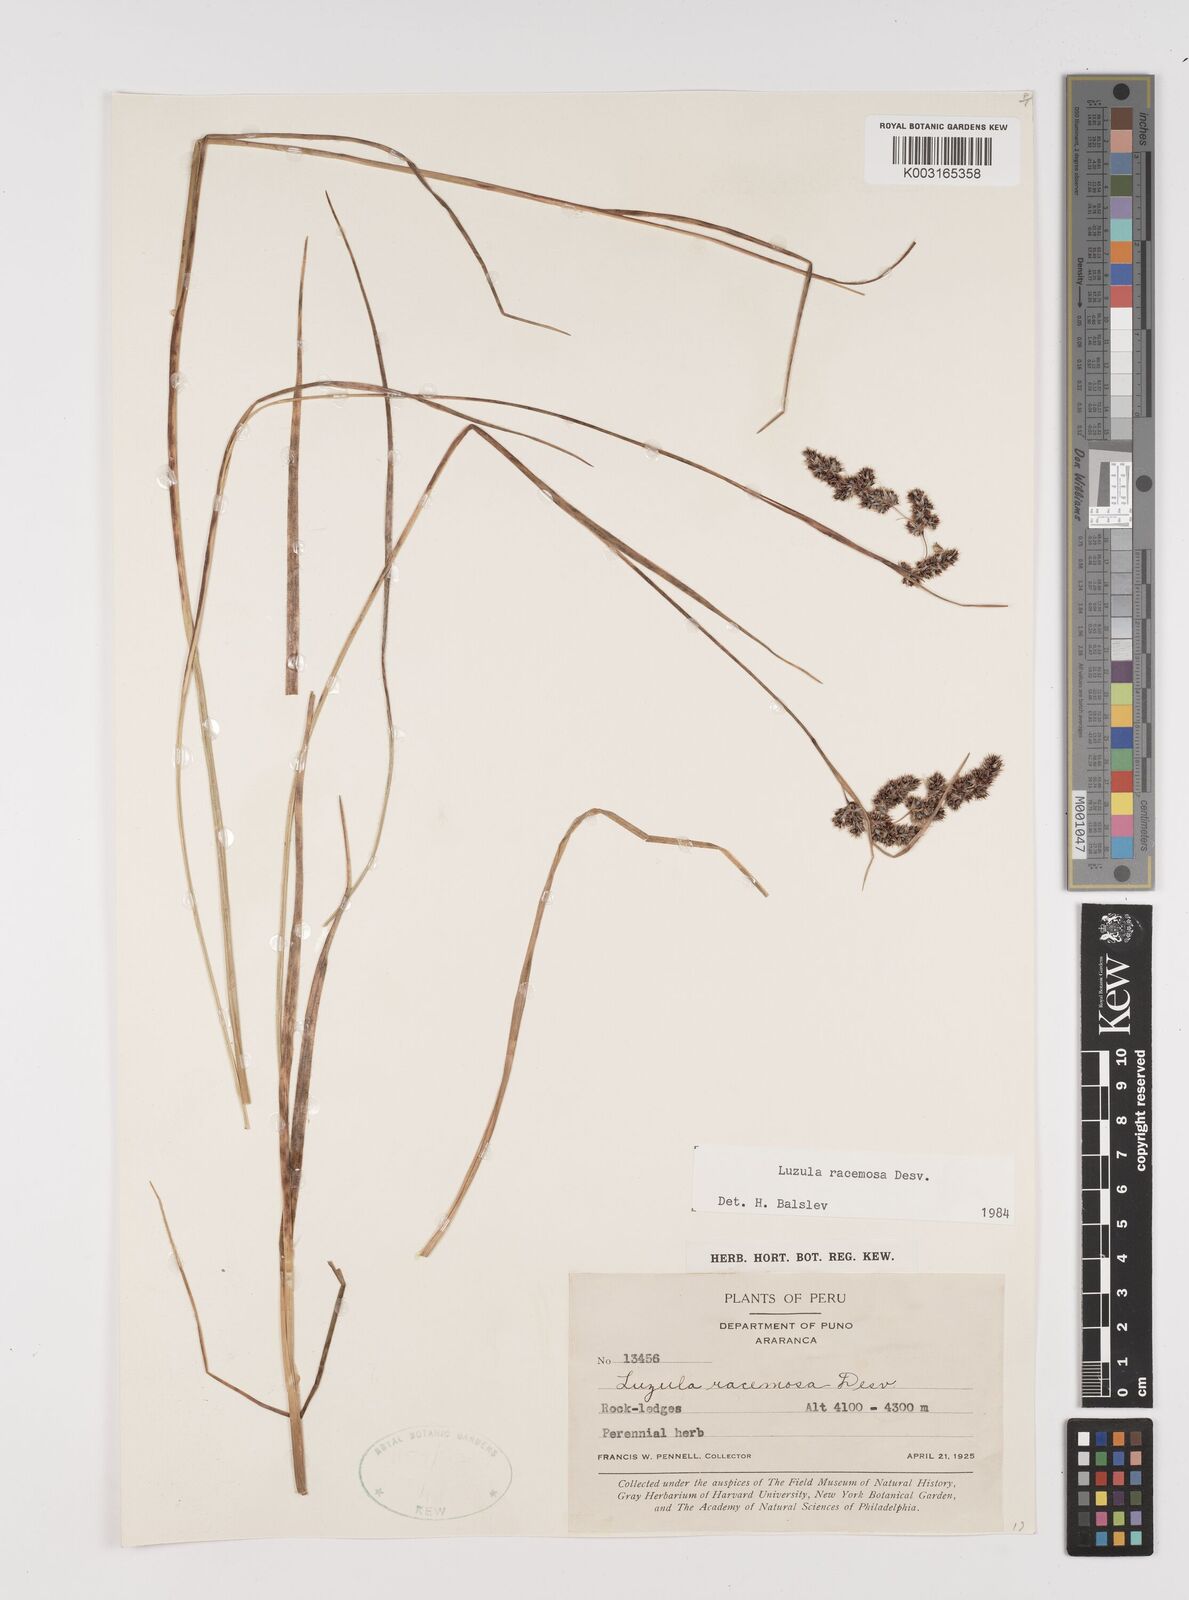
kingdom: Plantae
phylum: Tracheophyta
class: Liliopsida
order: Poales
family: Juncaceae
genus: Luzula
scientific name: Luzula racemosa
